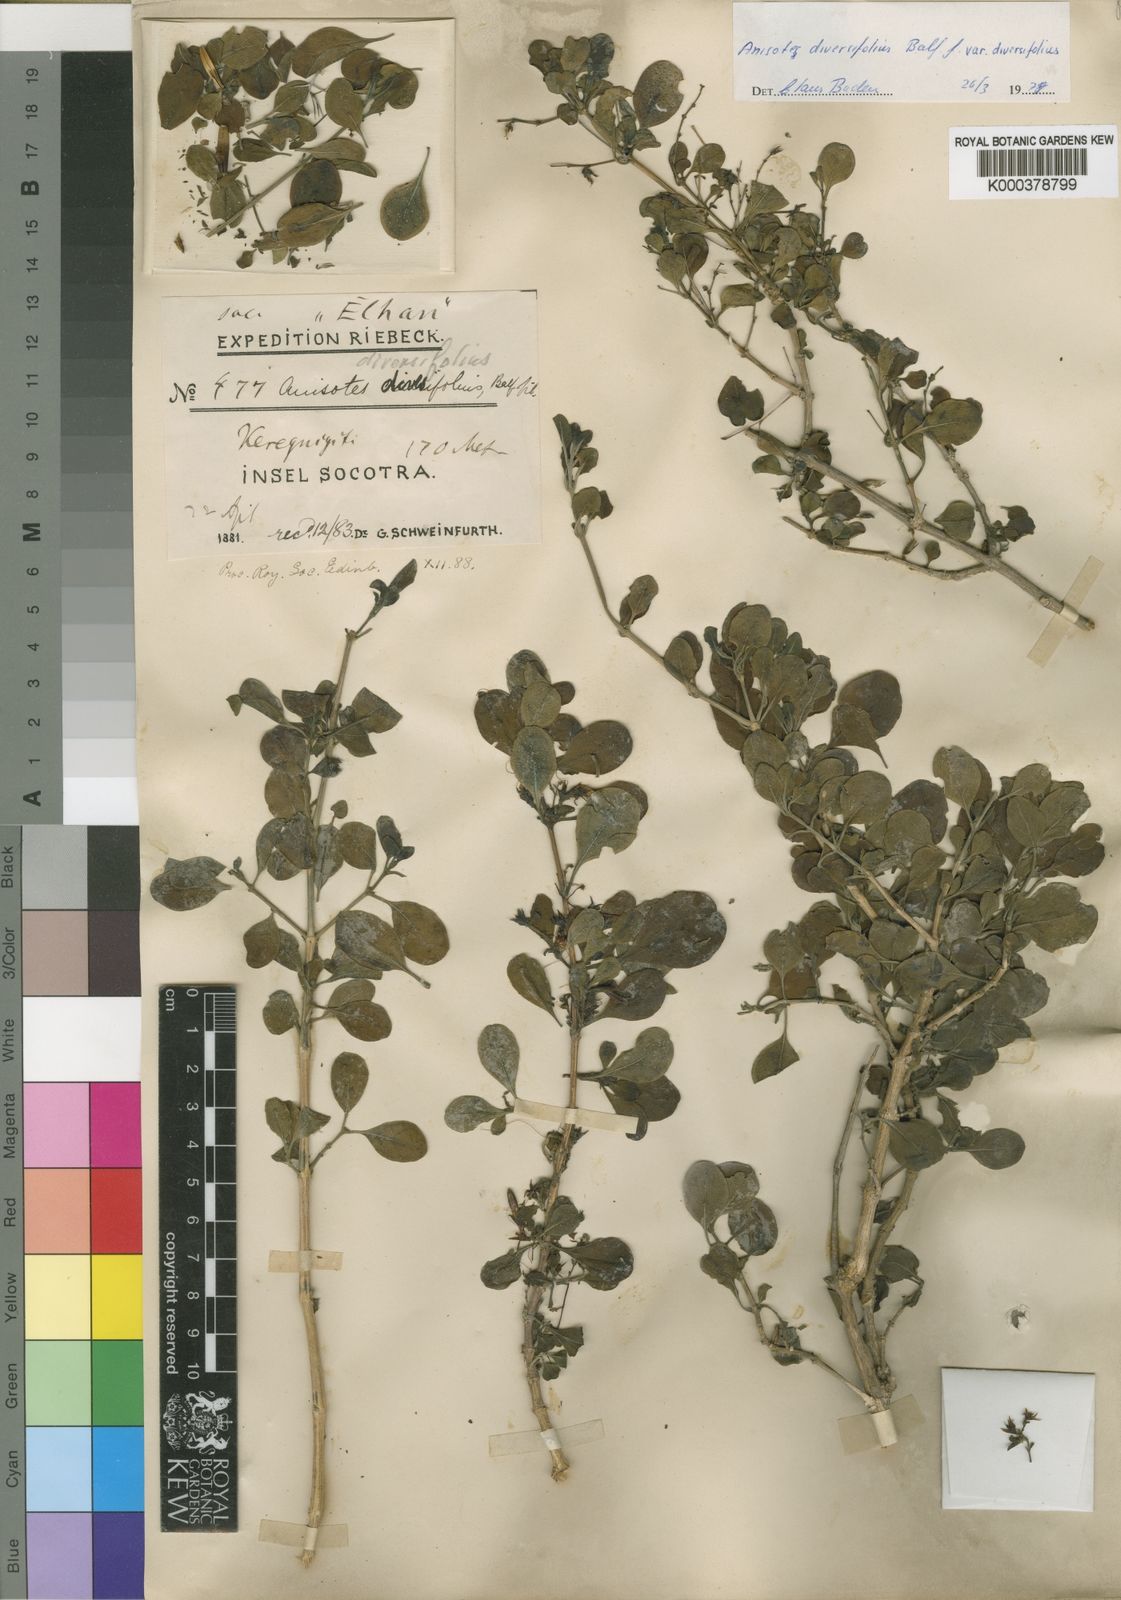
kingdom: Plantae
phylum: Tracheophyta
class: Magnoliopsida
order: Lamiales
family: Acanthaceae
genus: Anisotes
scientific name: Anisotes diversifolius
